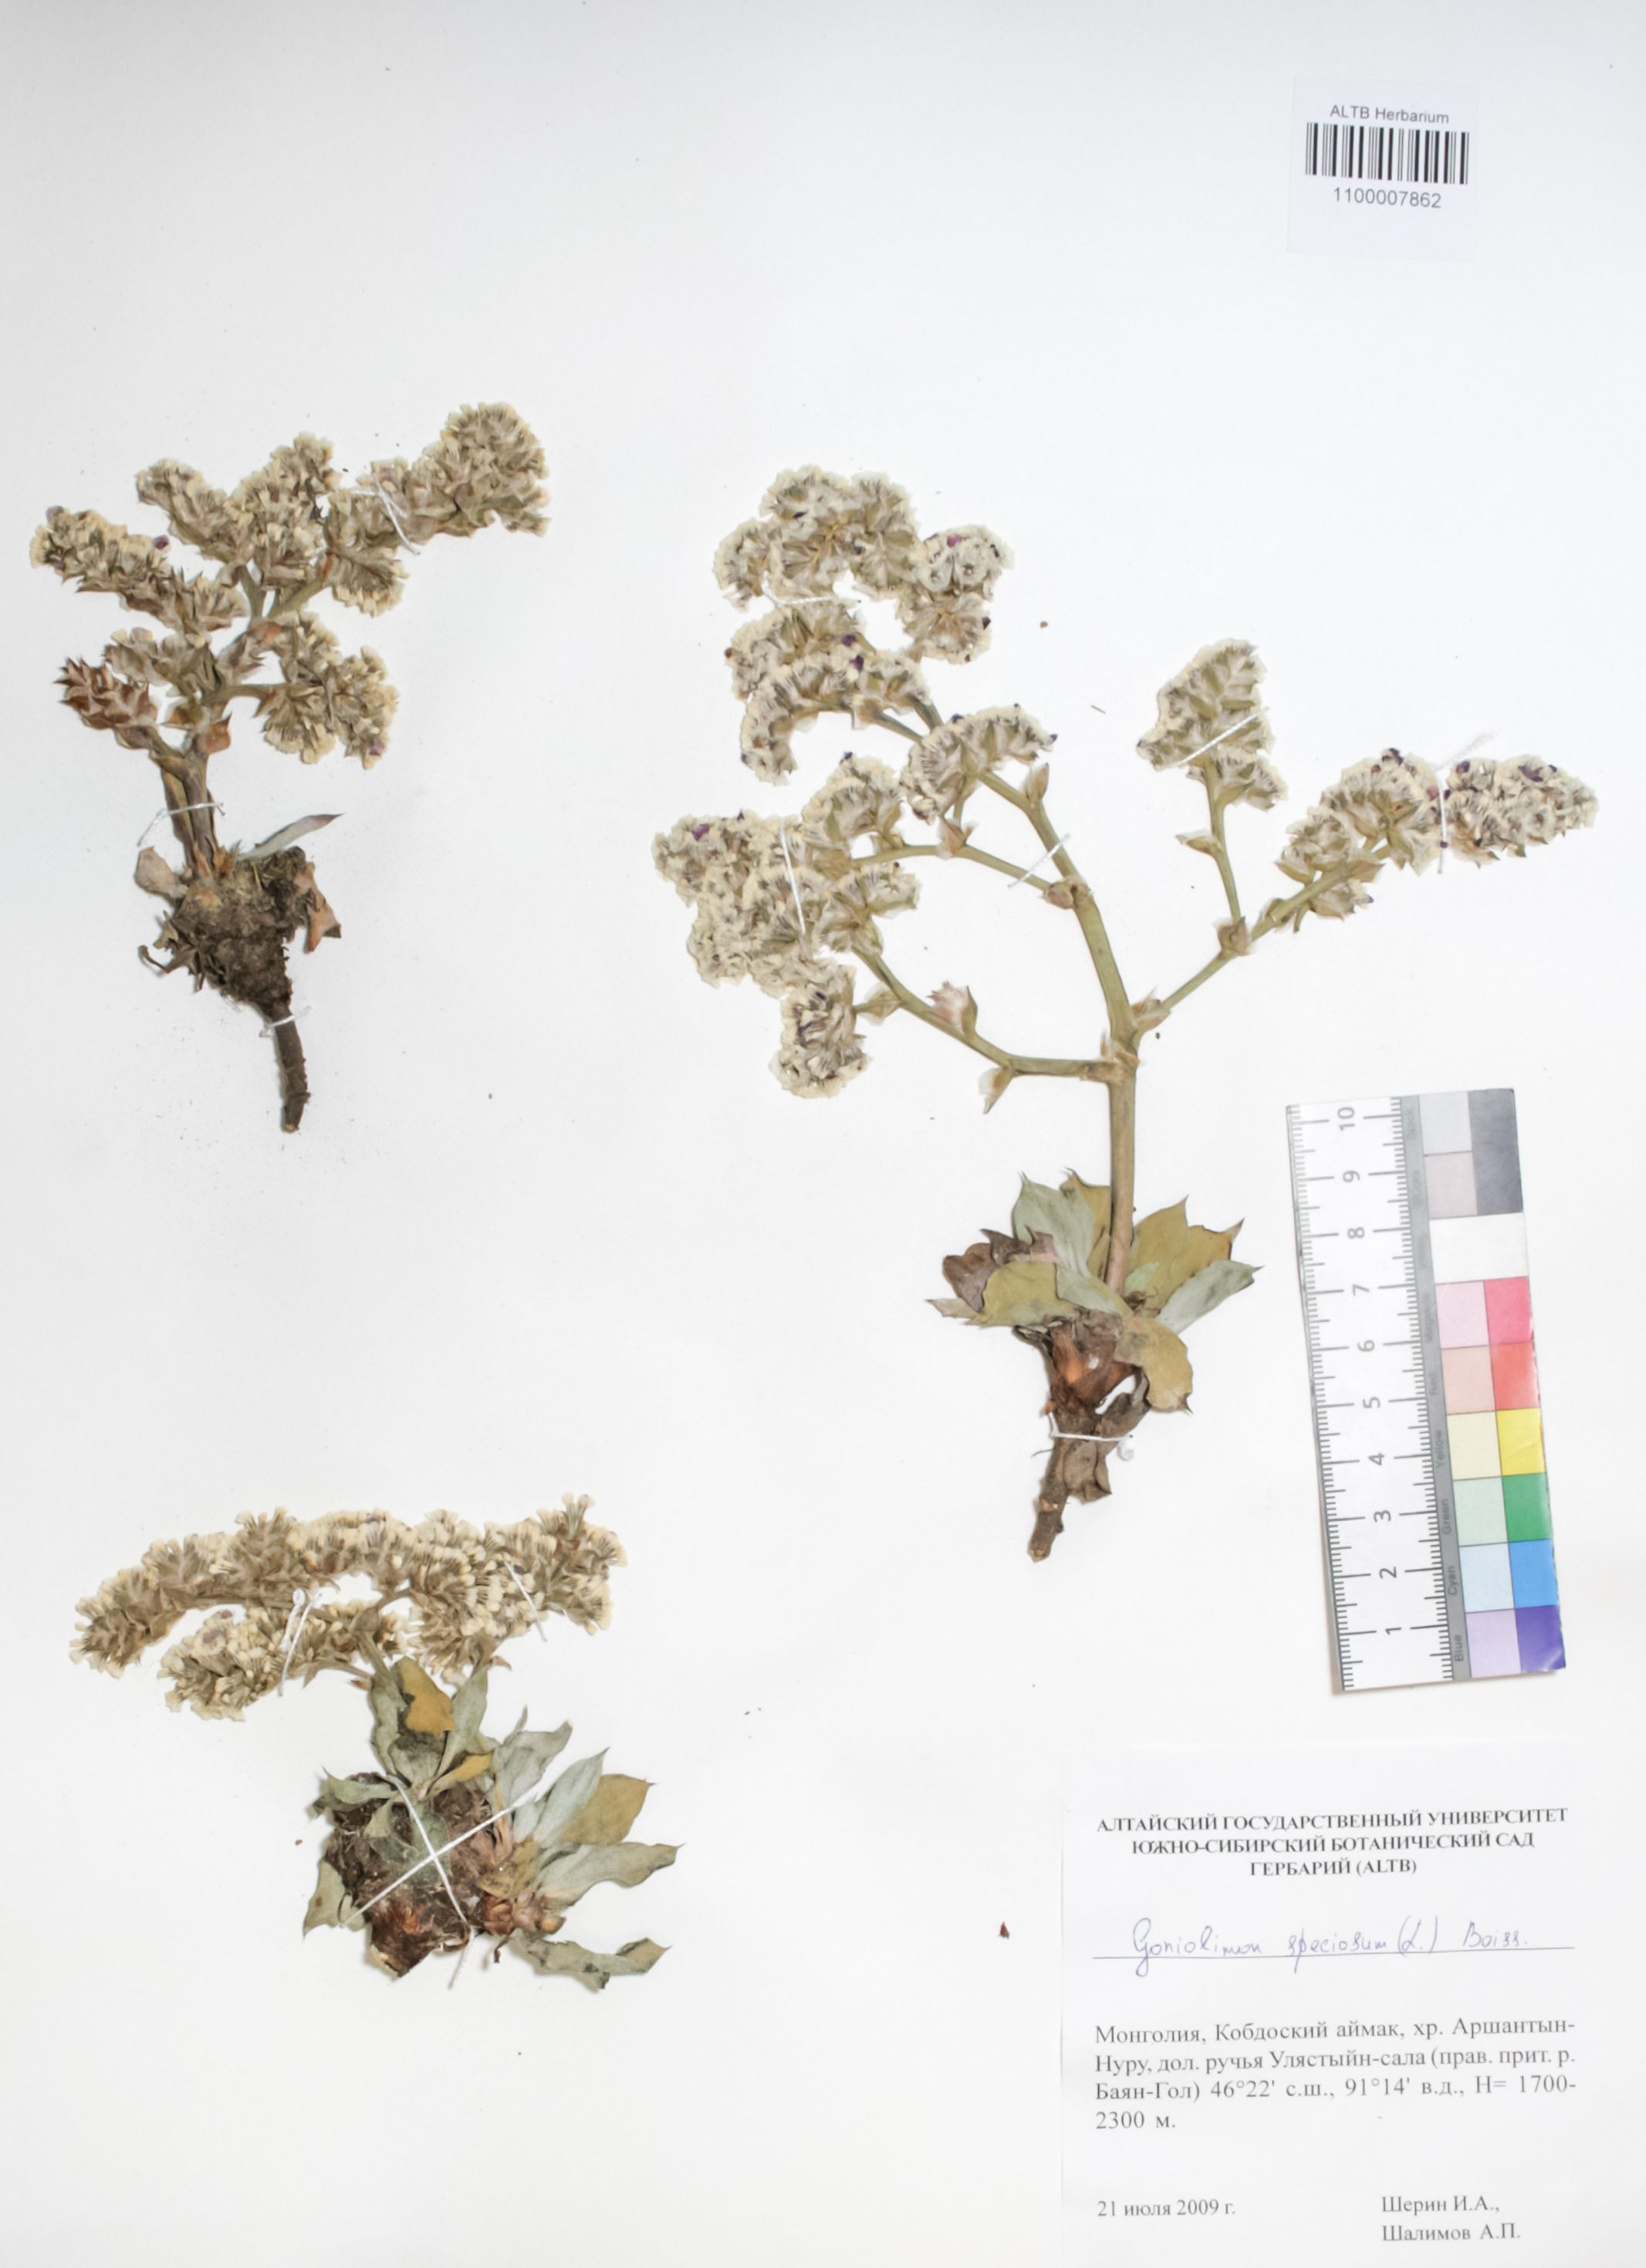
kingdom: Plantae
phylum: Tracheophyta
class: Magnoliopsida
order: Caryophyllales
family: Plumbaginaceae
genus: Goniolimon
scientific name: Goniolimon speciosum
